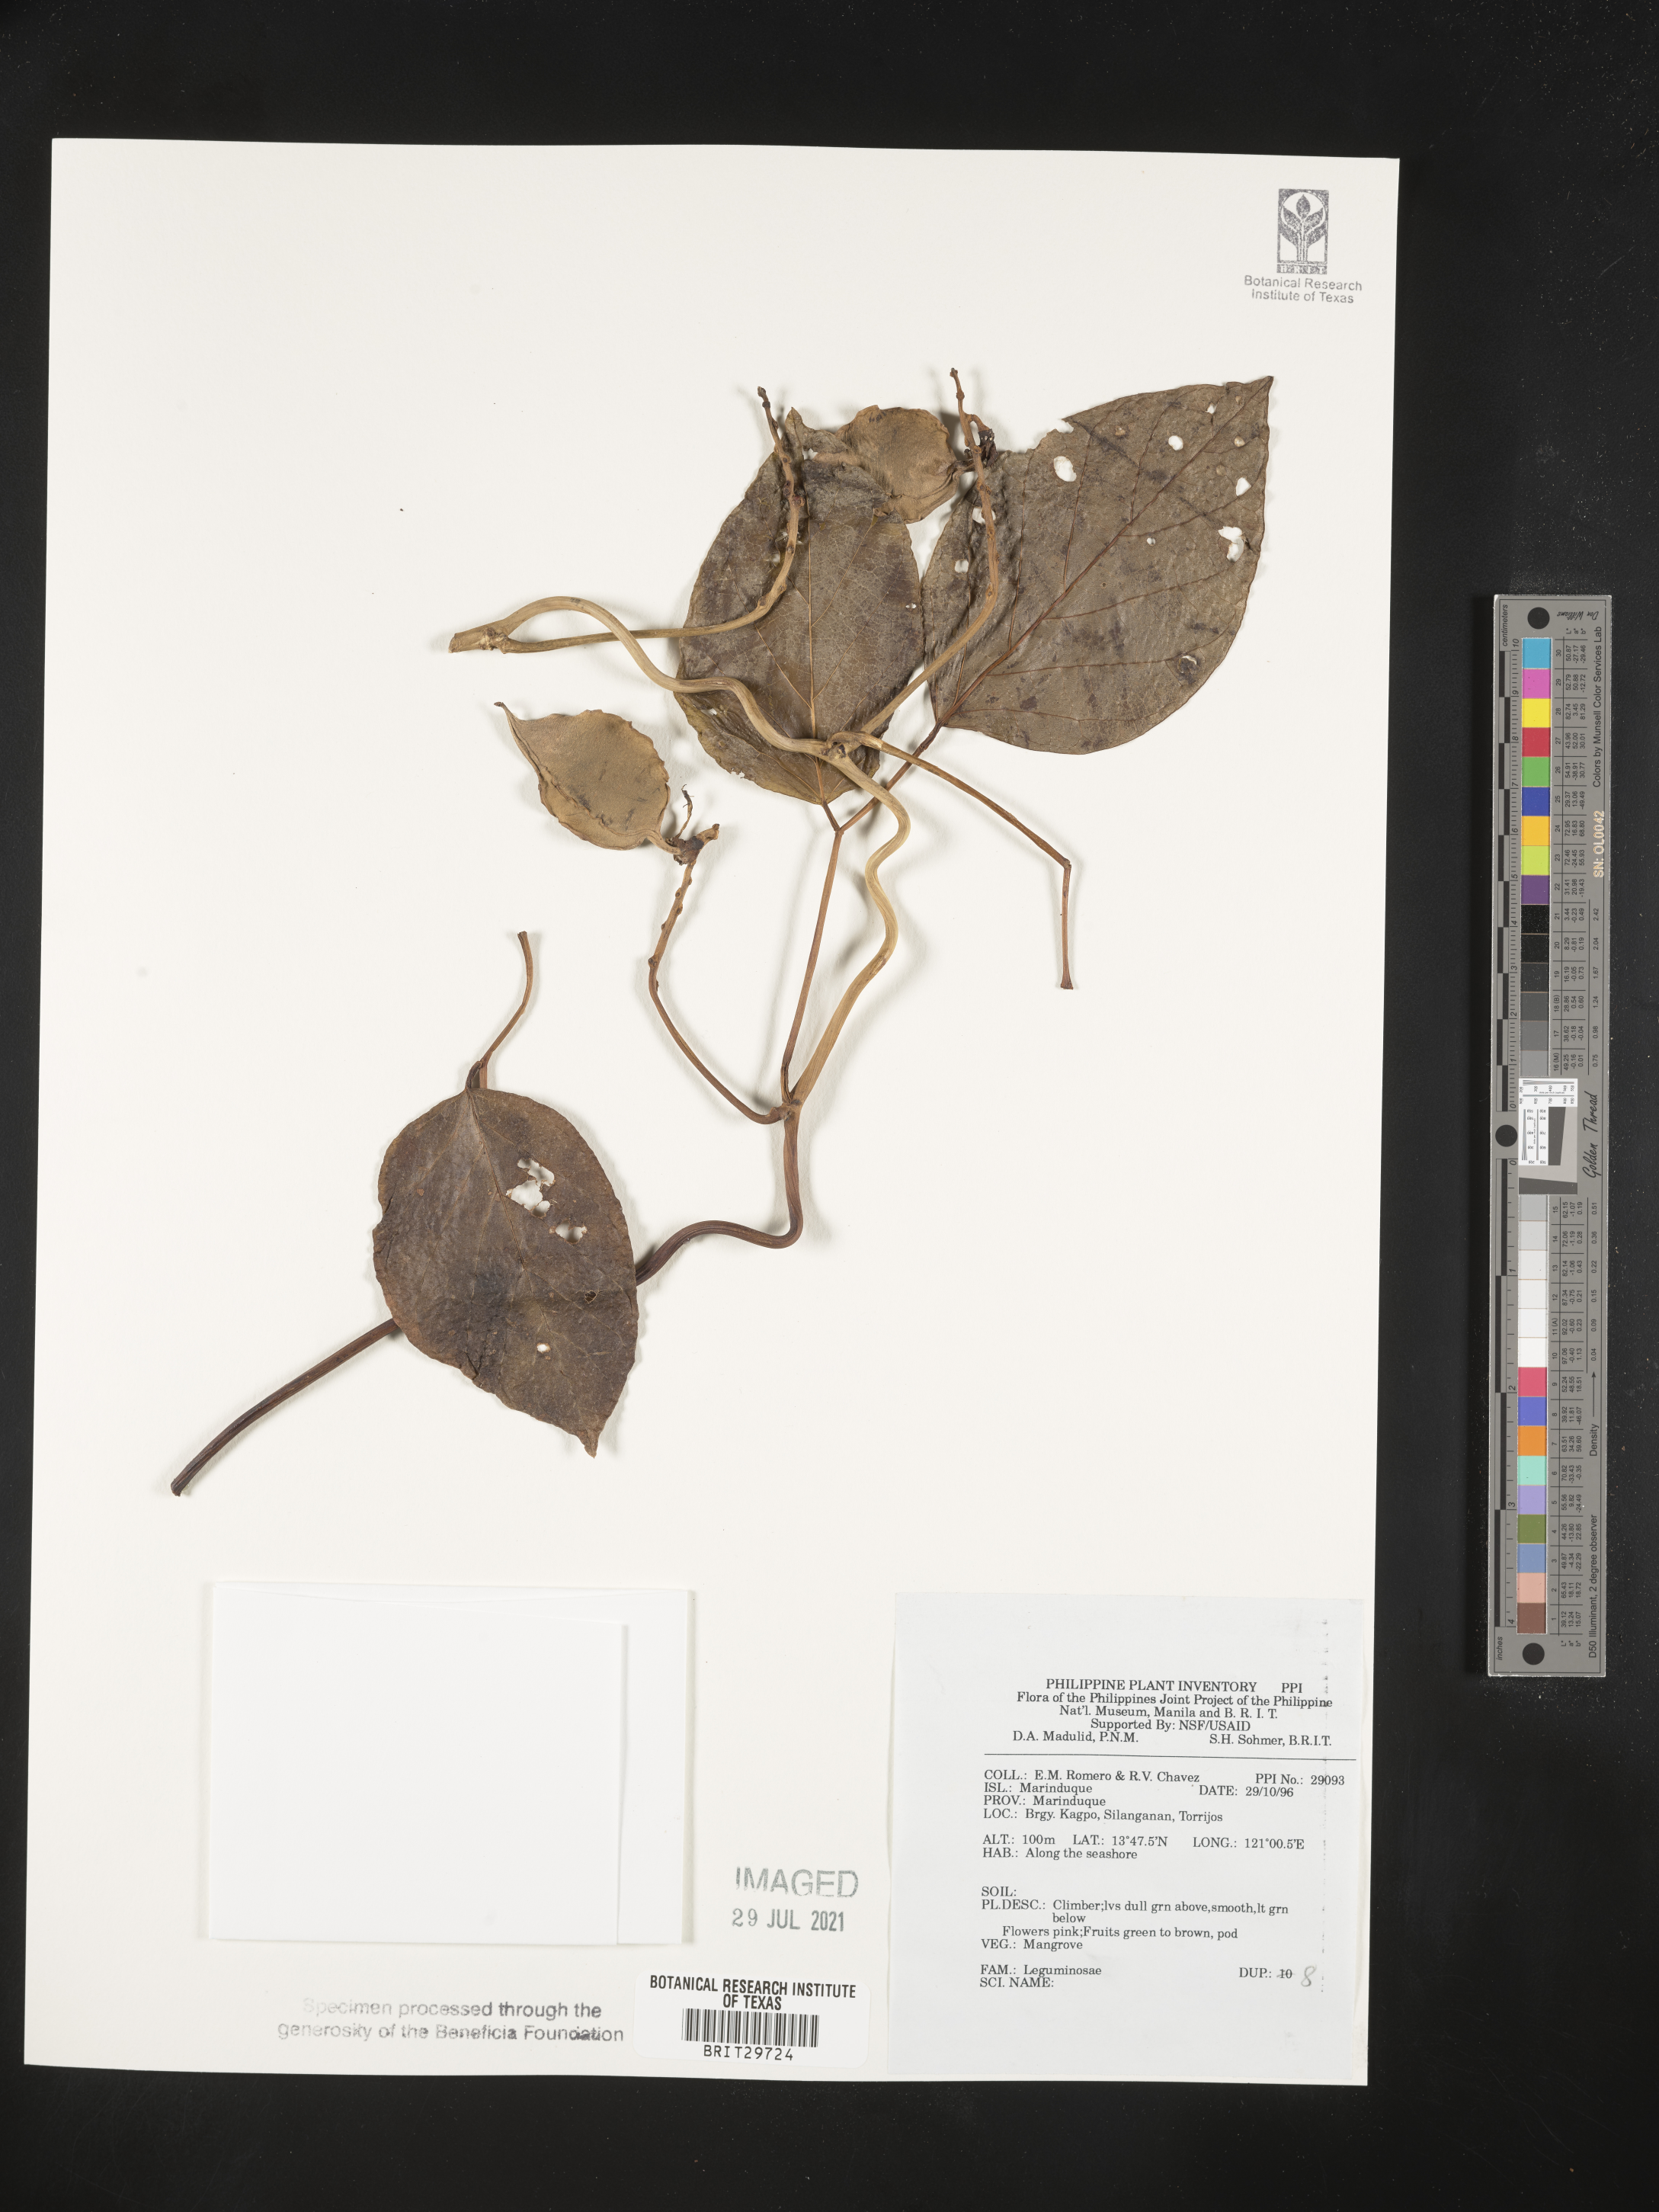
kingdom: Plantae
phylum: Tracheophyta
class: Magnoliopsida
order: Fabales
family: Fabaceae
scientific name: Fabaceae
